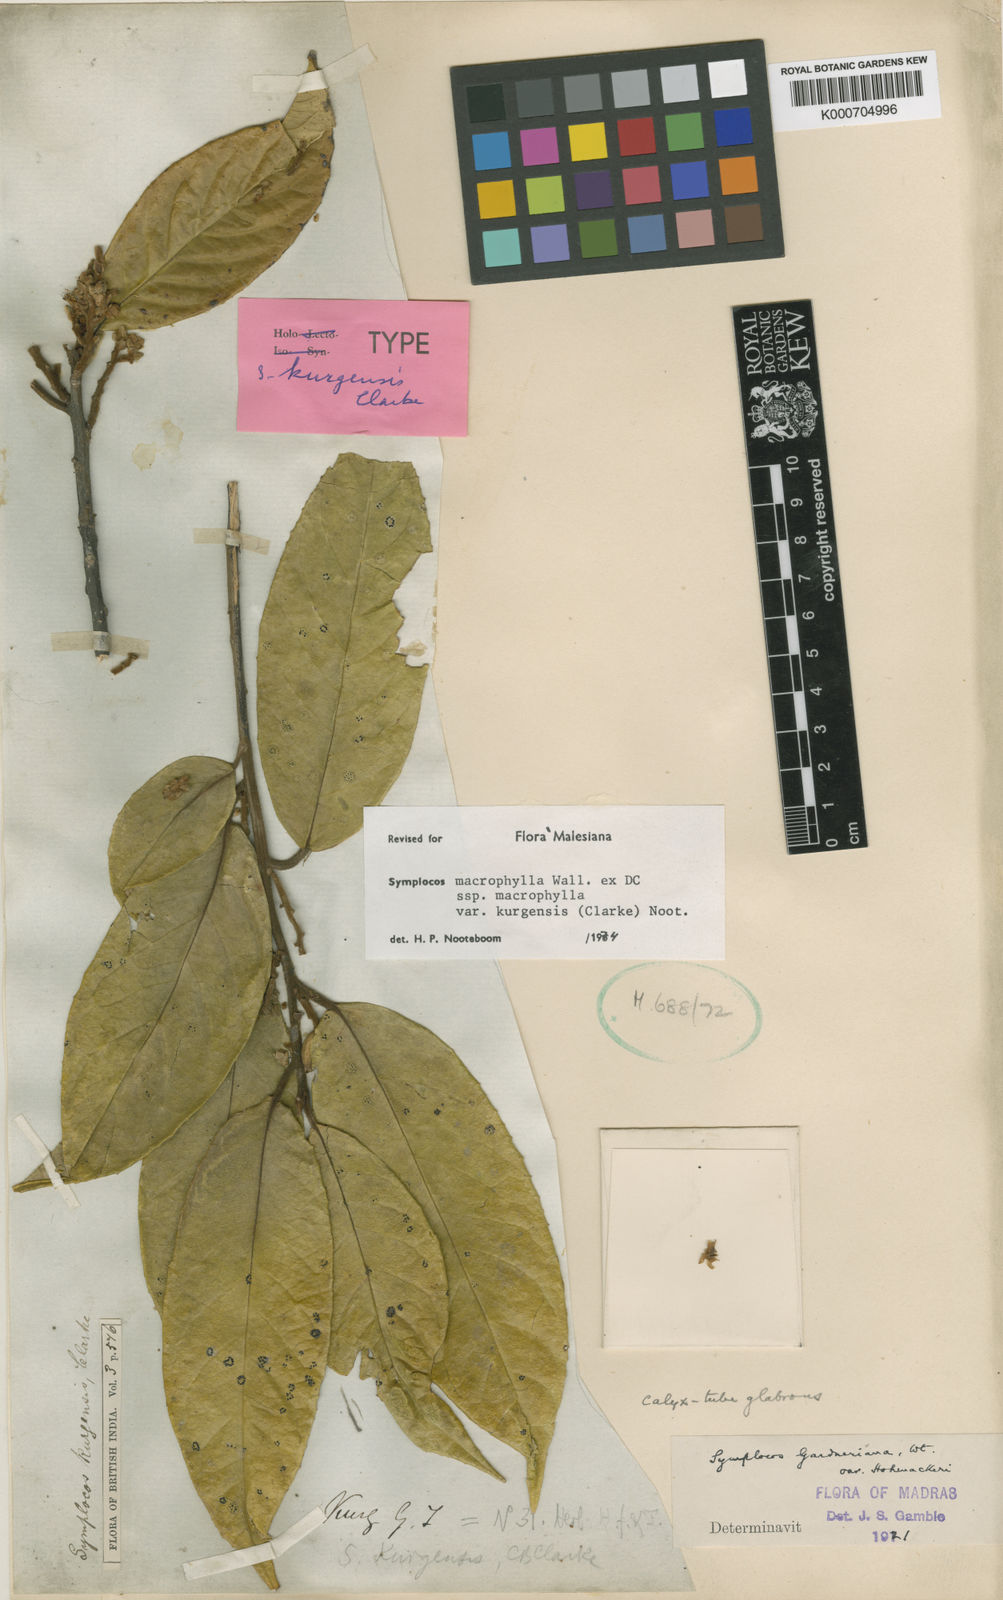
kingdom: Plantae
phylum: Tracheophyta
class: Magnoliopsida
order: Ericales
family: Symplocaceae
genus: Symplocos
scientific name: Symplocos
